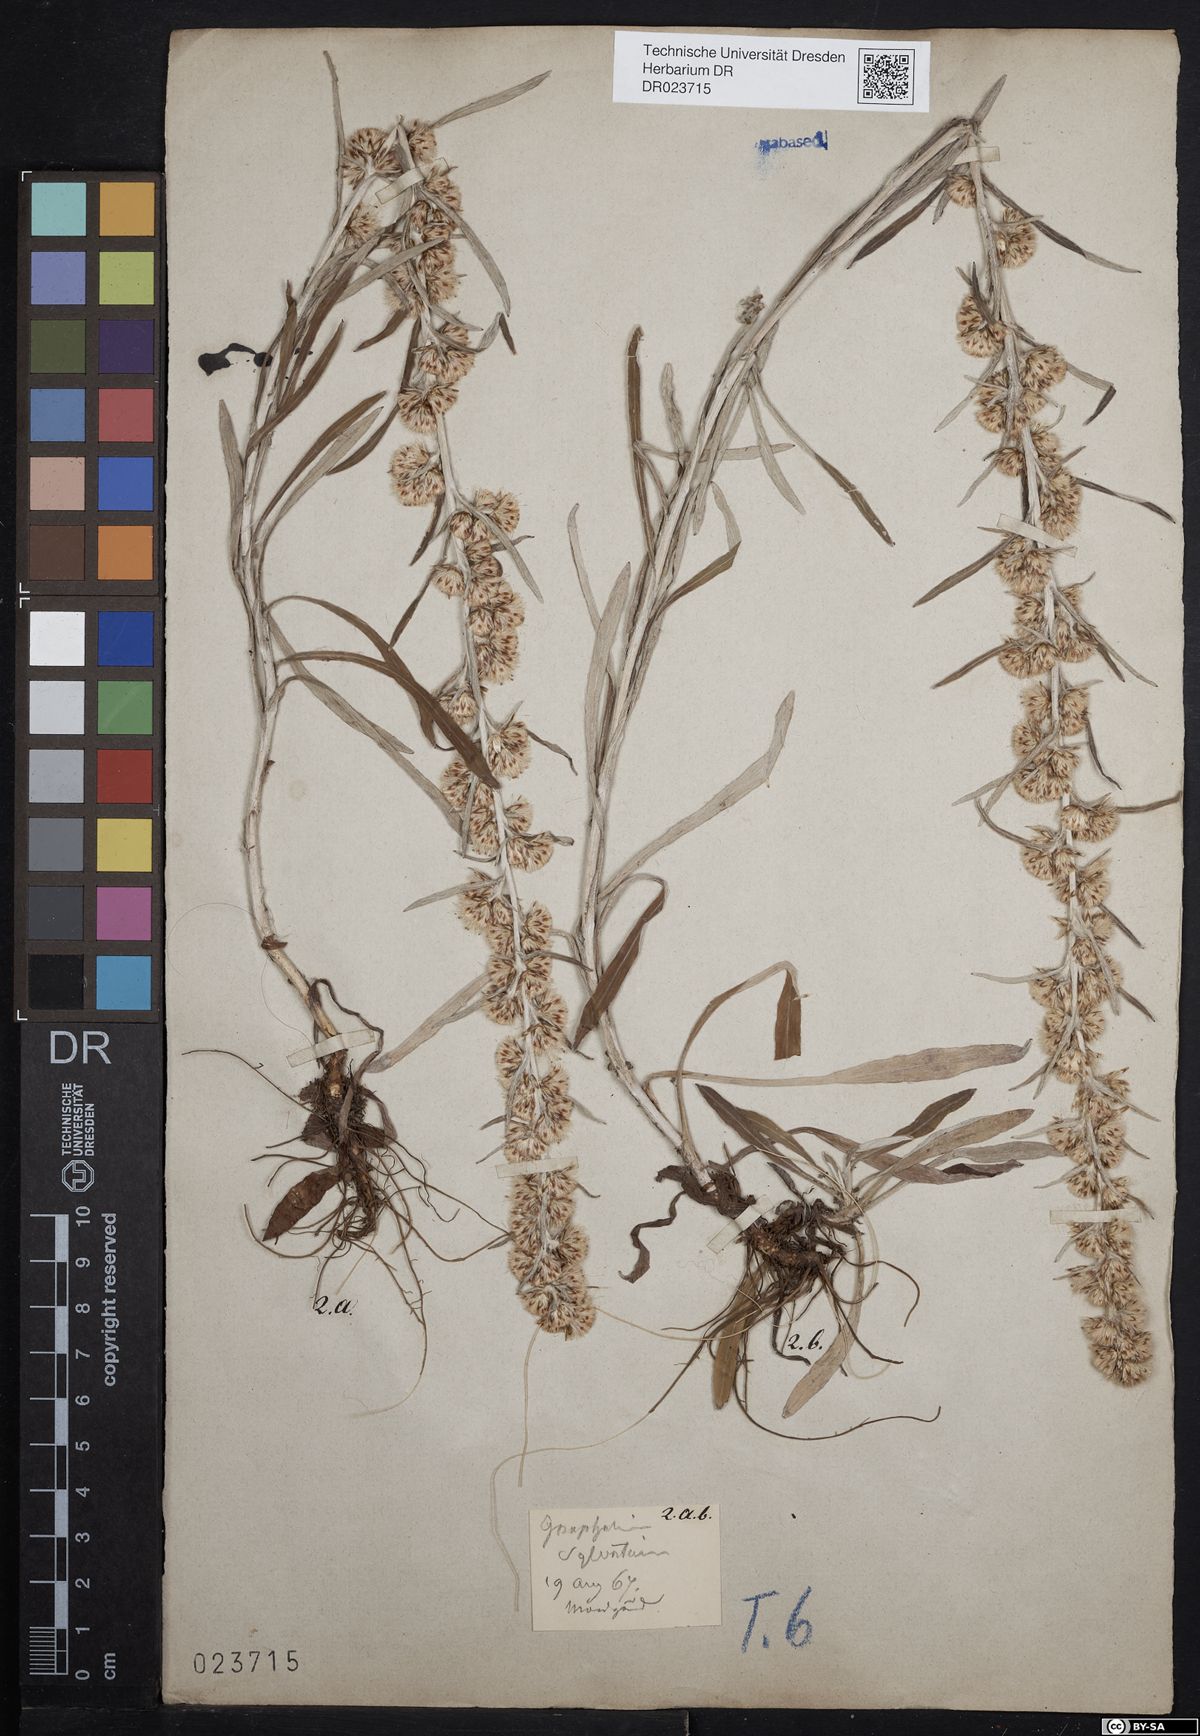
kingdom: Plantae
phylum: Tracheophyta
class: Magnoliopsida
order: Asterales
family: Asteraceae
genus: Omalotheca
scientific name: Omalotheca sylvatica
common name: Heath cudweed
